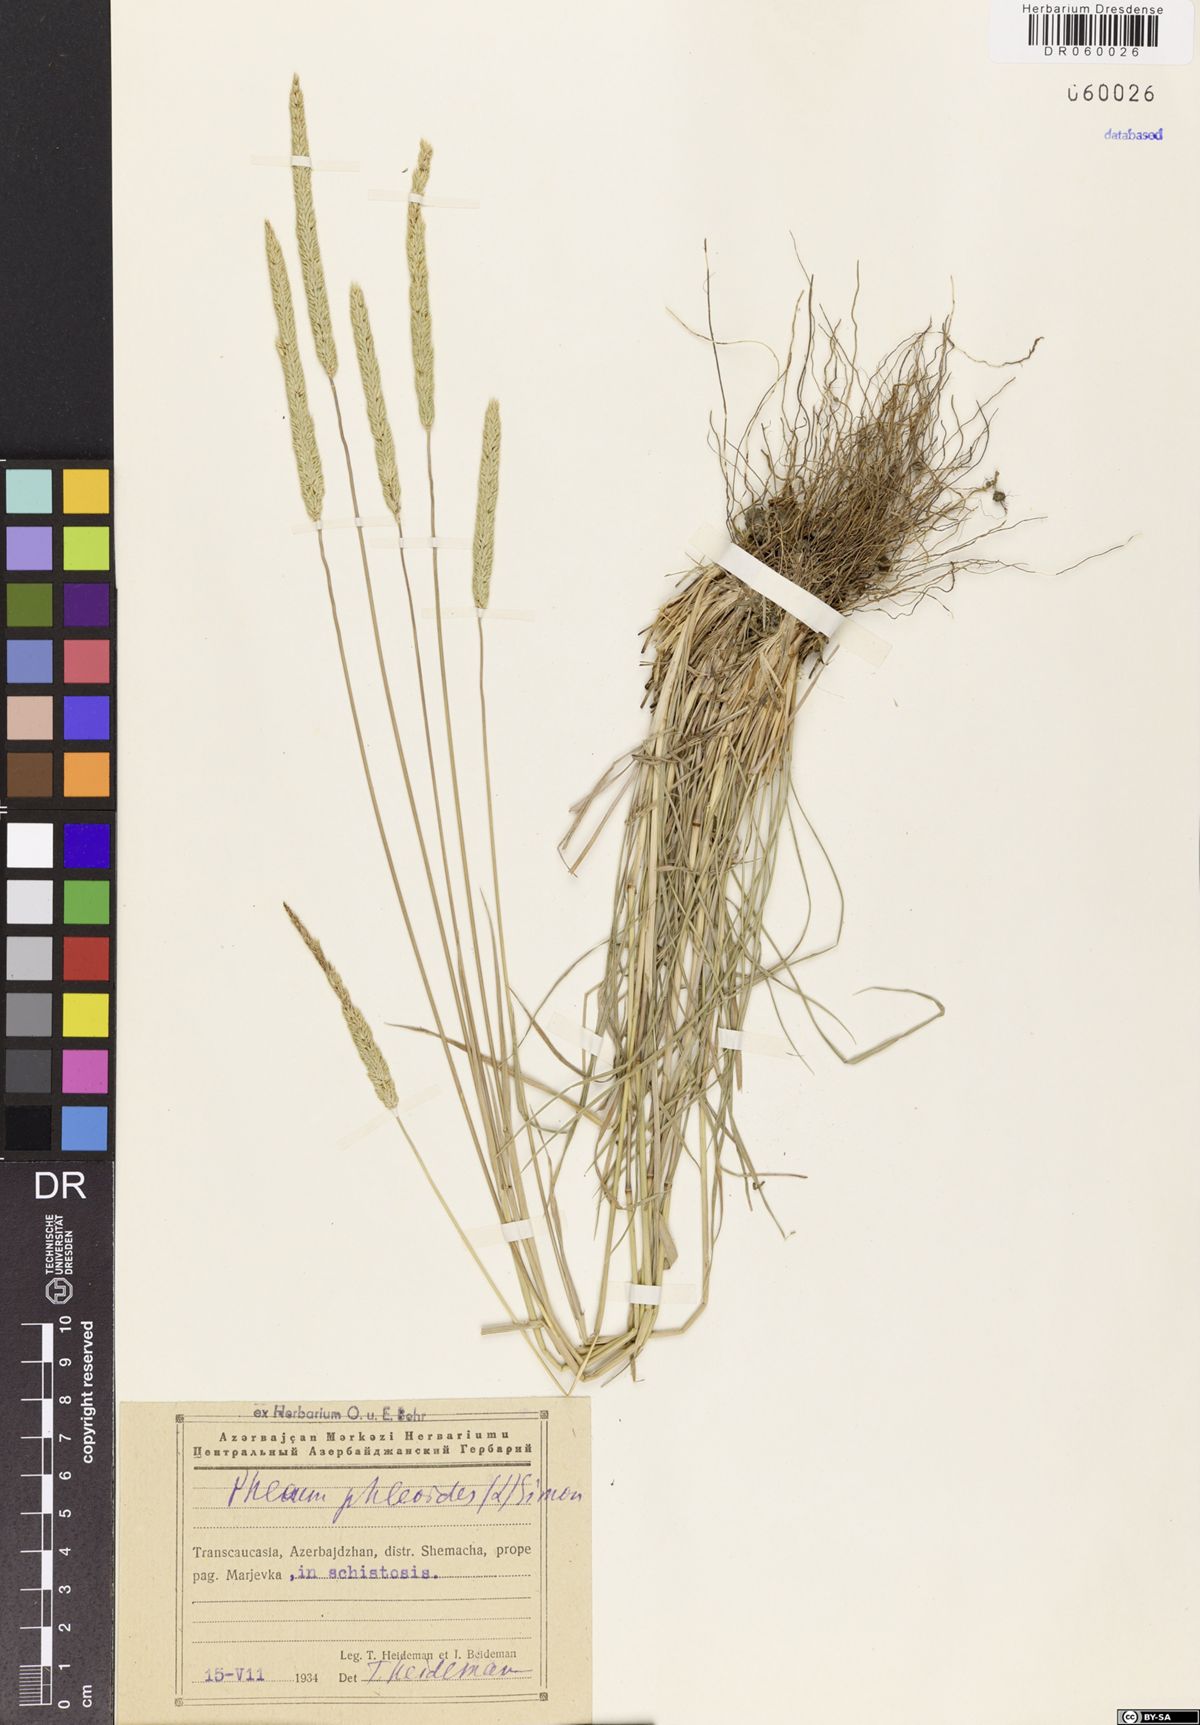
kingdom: Plantae
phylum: Tracheophyta
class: Liliopsida
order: Poales
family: Poaceae
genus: Phleum
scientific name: Phleum phleoides
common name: Purple-stem cat's-tail
